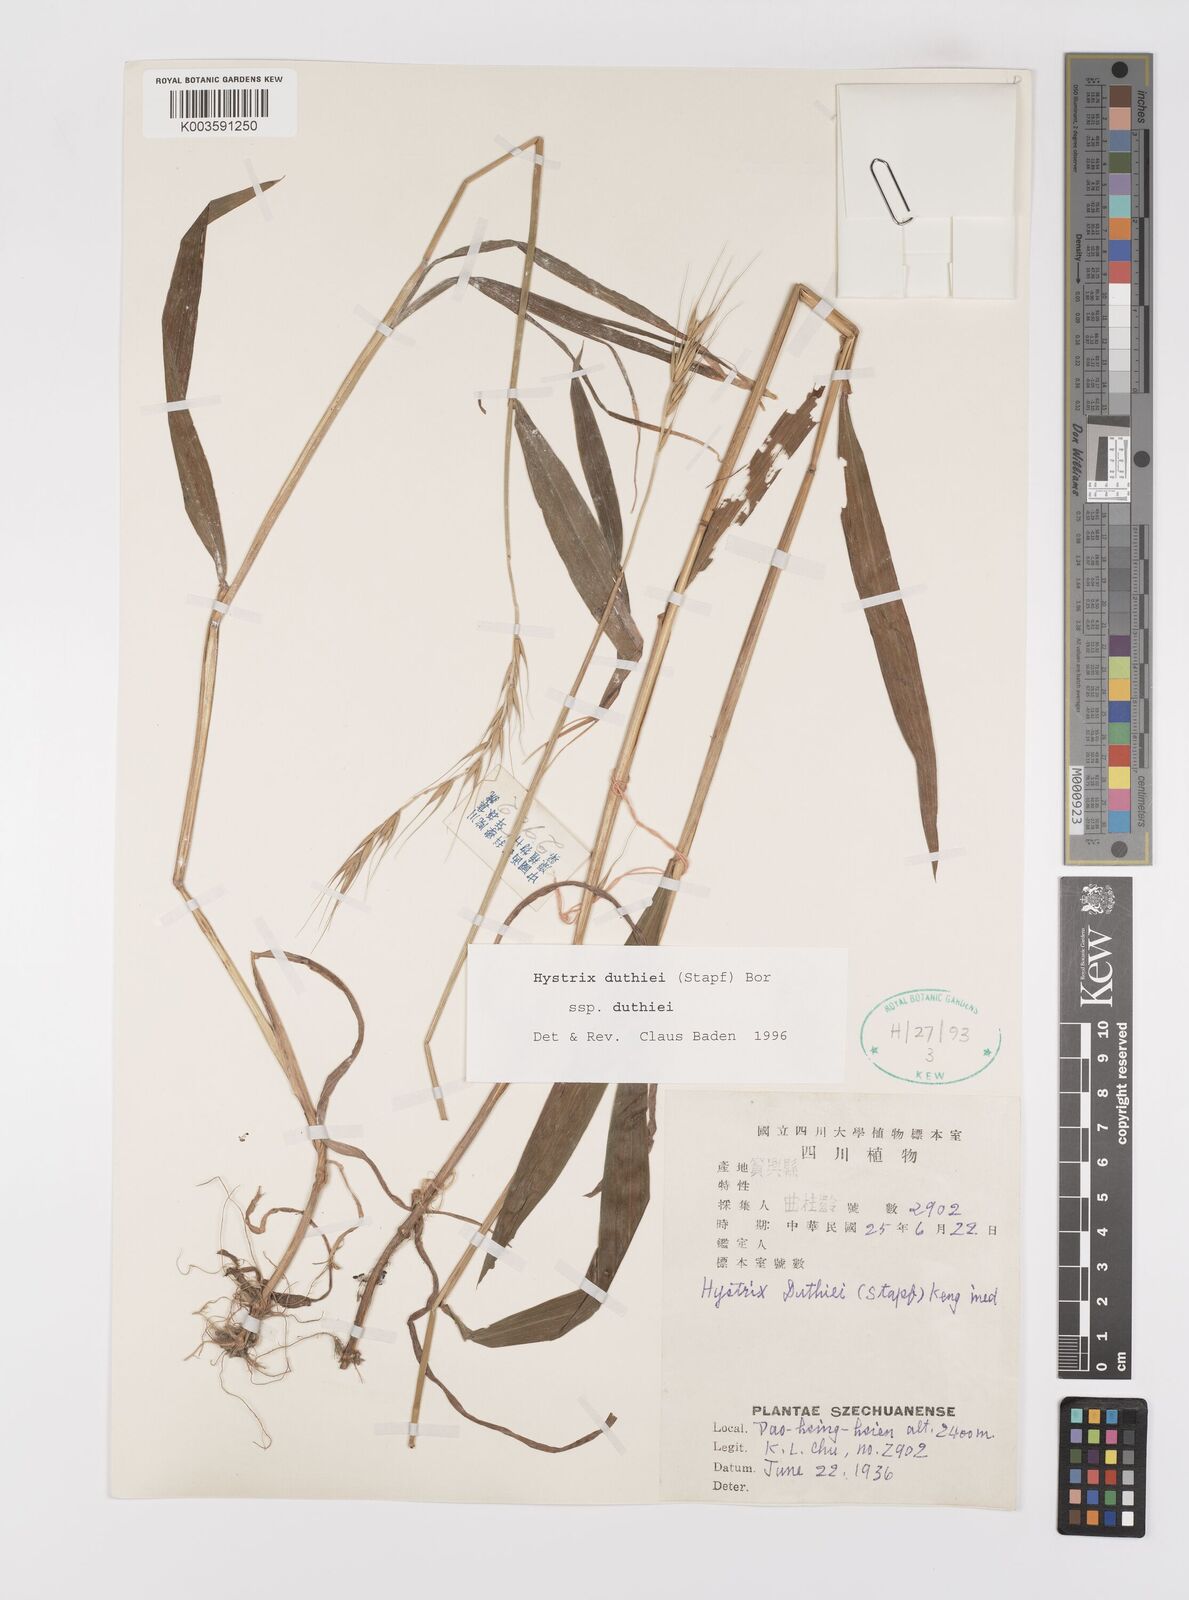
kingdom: Plantae
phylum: Tracheophyta
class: Liliopsida
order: Poales
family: Poaceae
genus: Leymus
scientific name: Leymus duthiei
